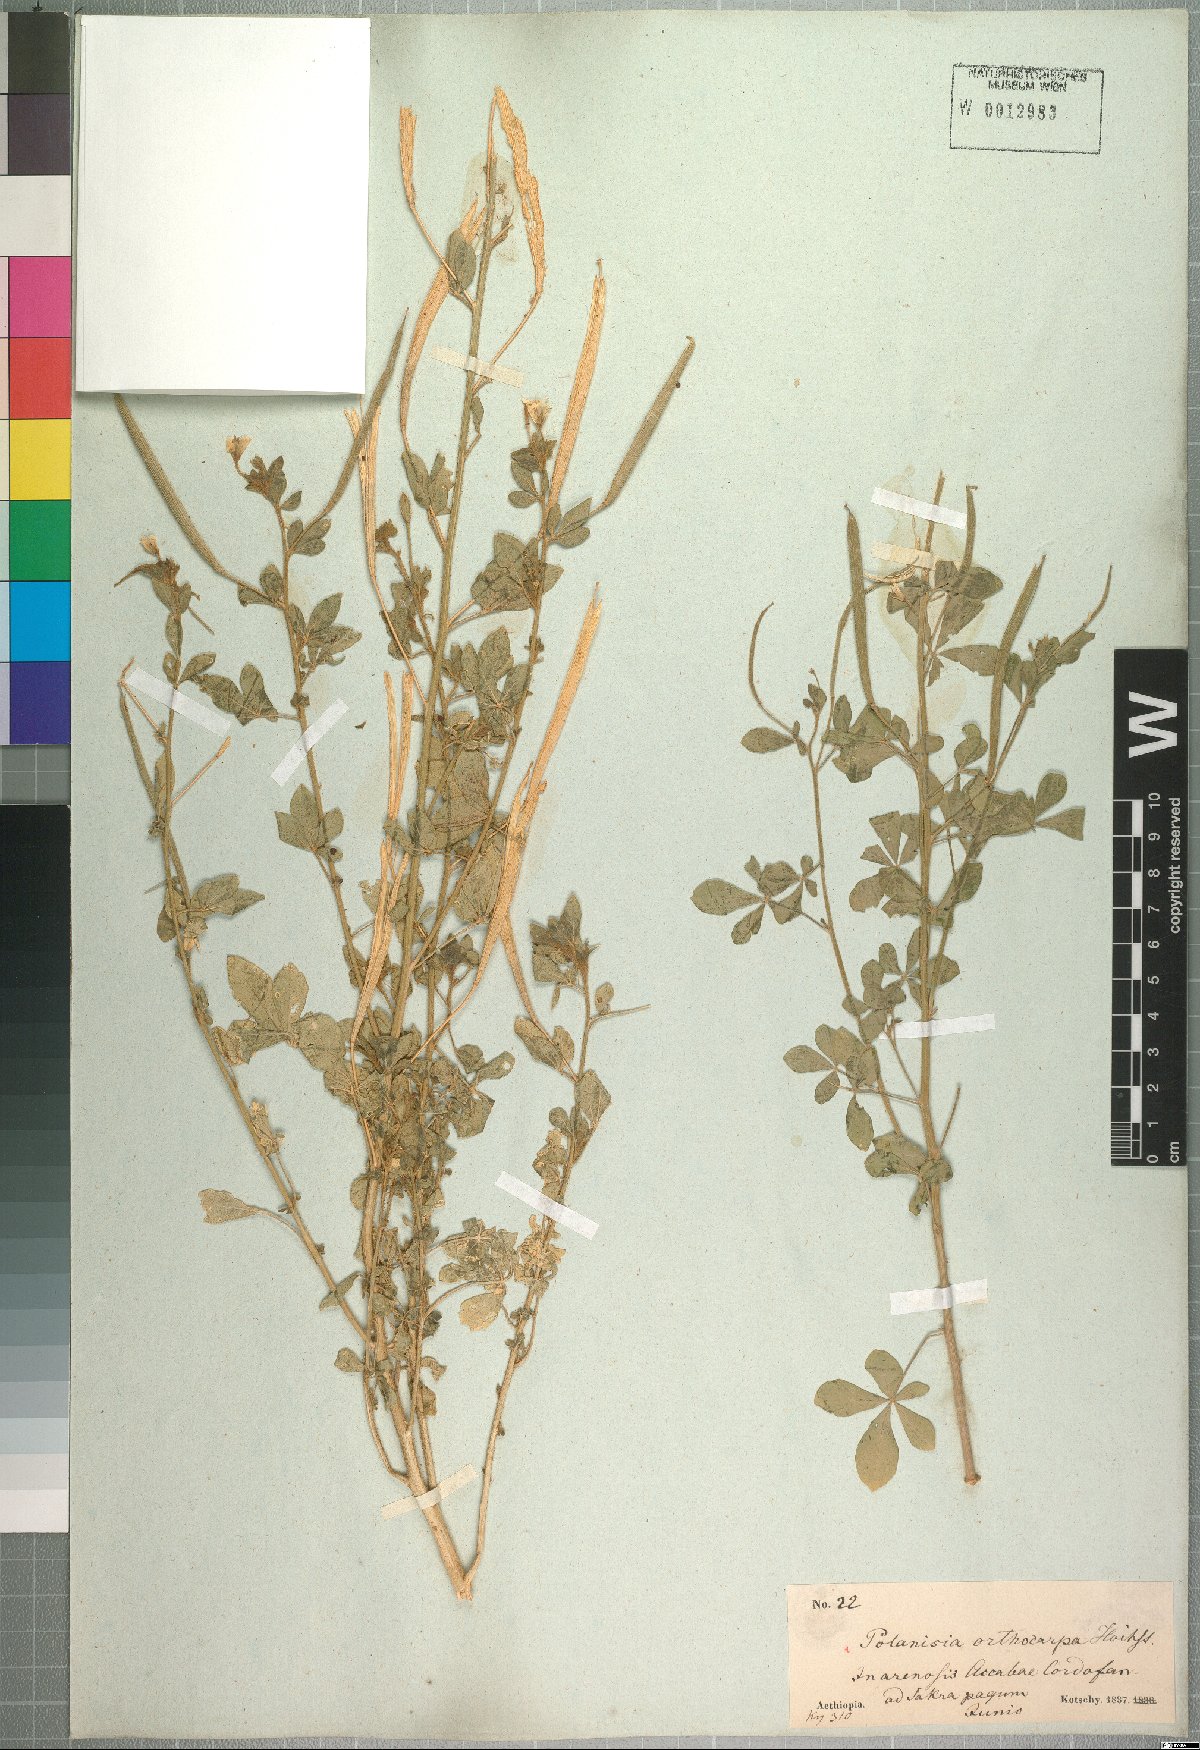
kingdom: Plantae
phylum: Tracheophyta
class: Magnoliopsida
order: Brassicales
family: Cleomaceae
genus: Arivela
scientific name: Arivela viscosa
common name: Asian spiderflower
